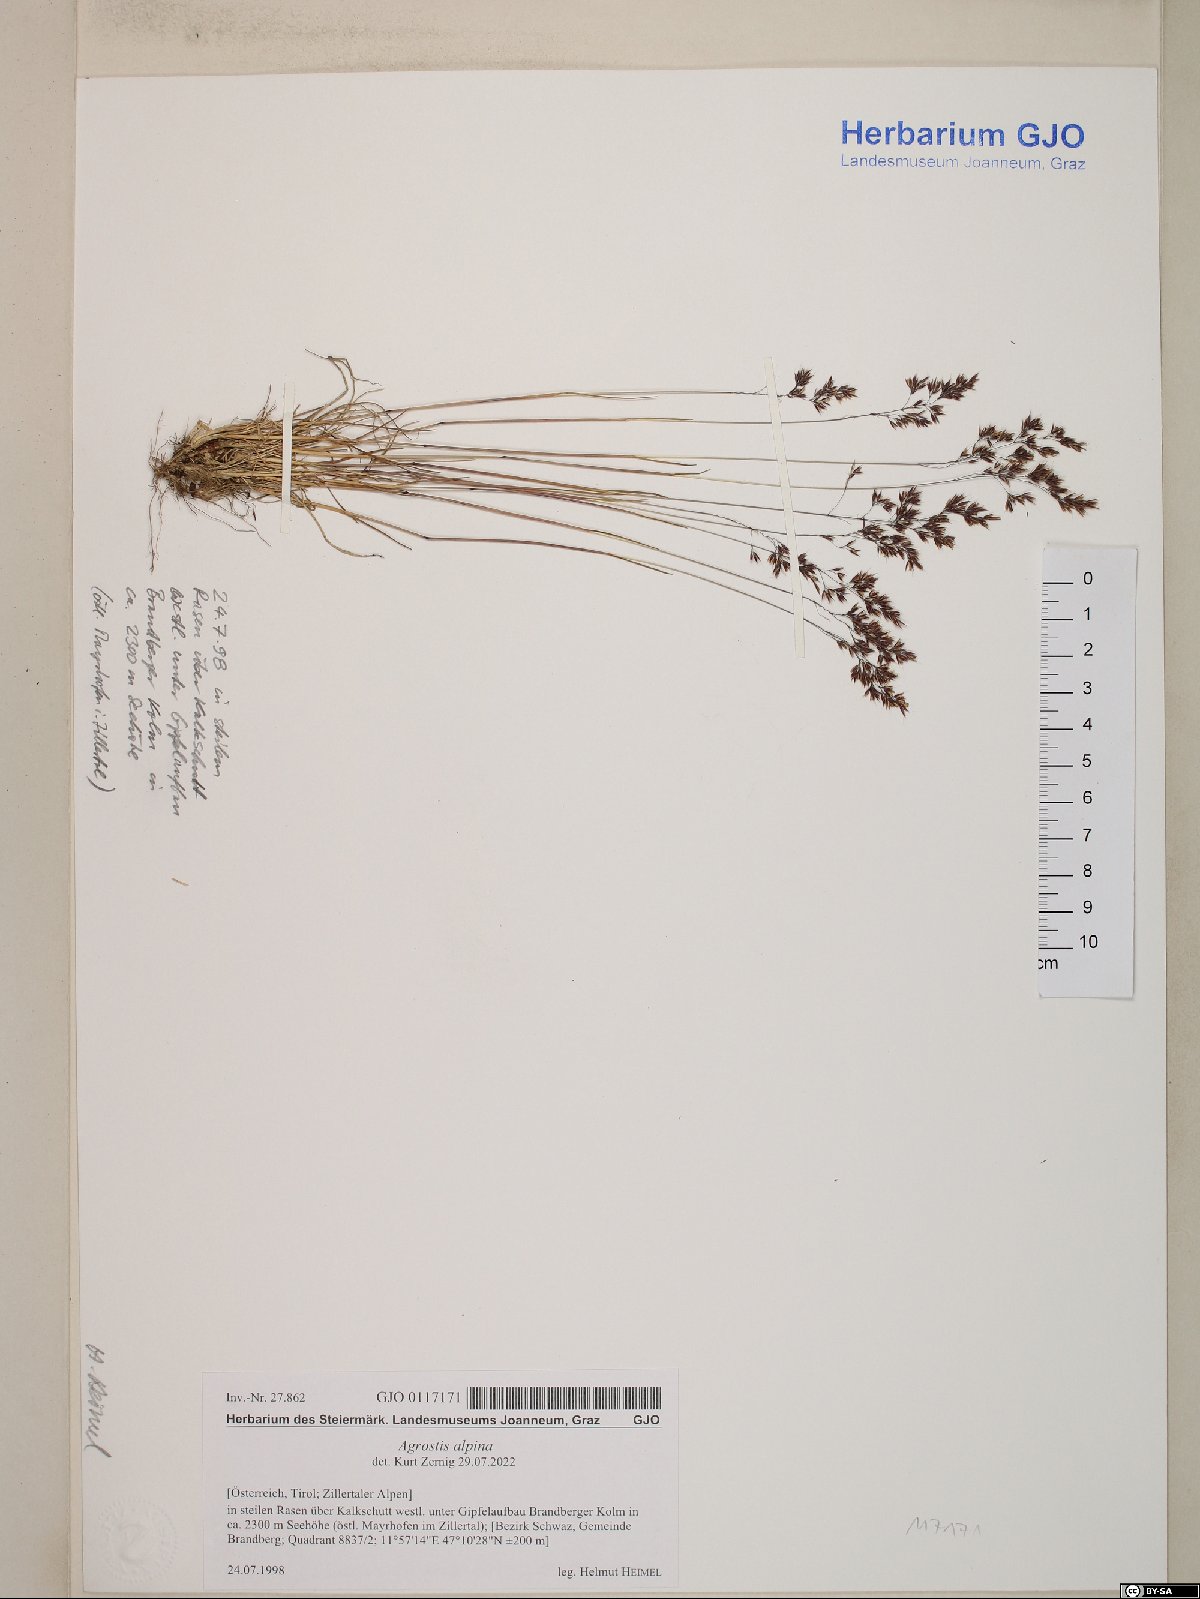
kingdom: Plantae
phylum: Tracheophyta
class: Liliopsida
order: Poales
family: Poaceae
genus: Alpagrostis
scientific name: Alpagrostis alpina
